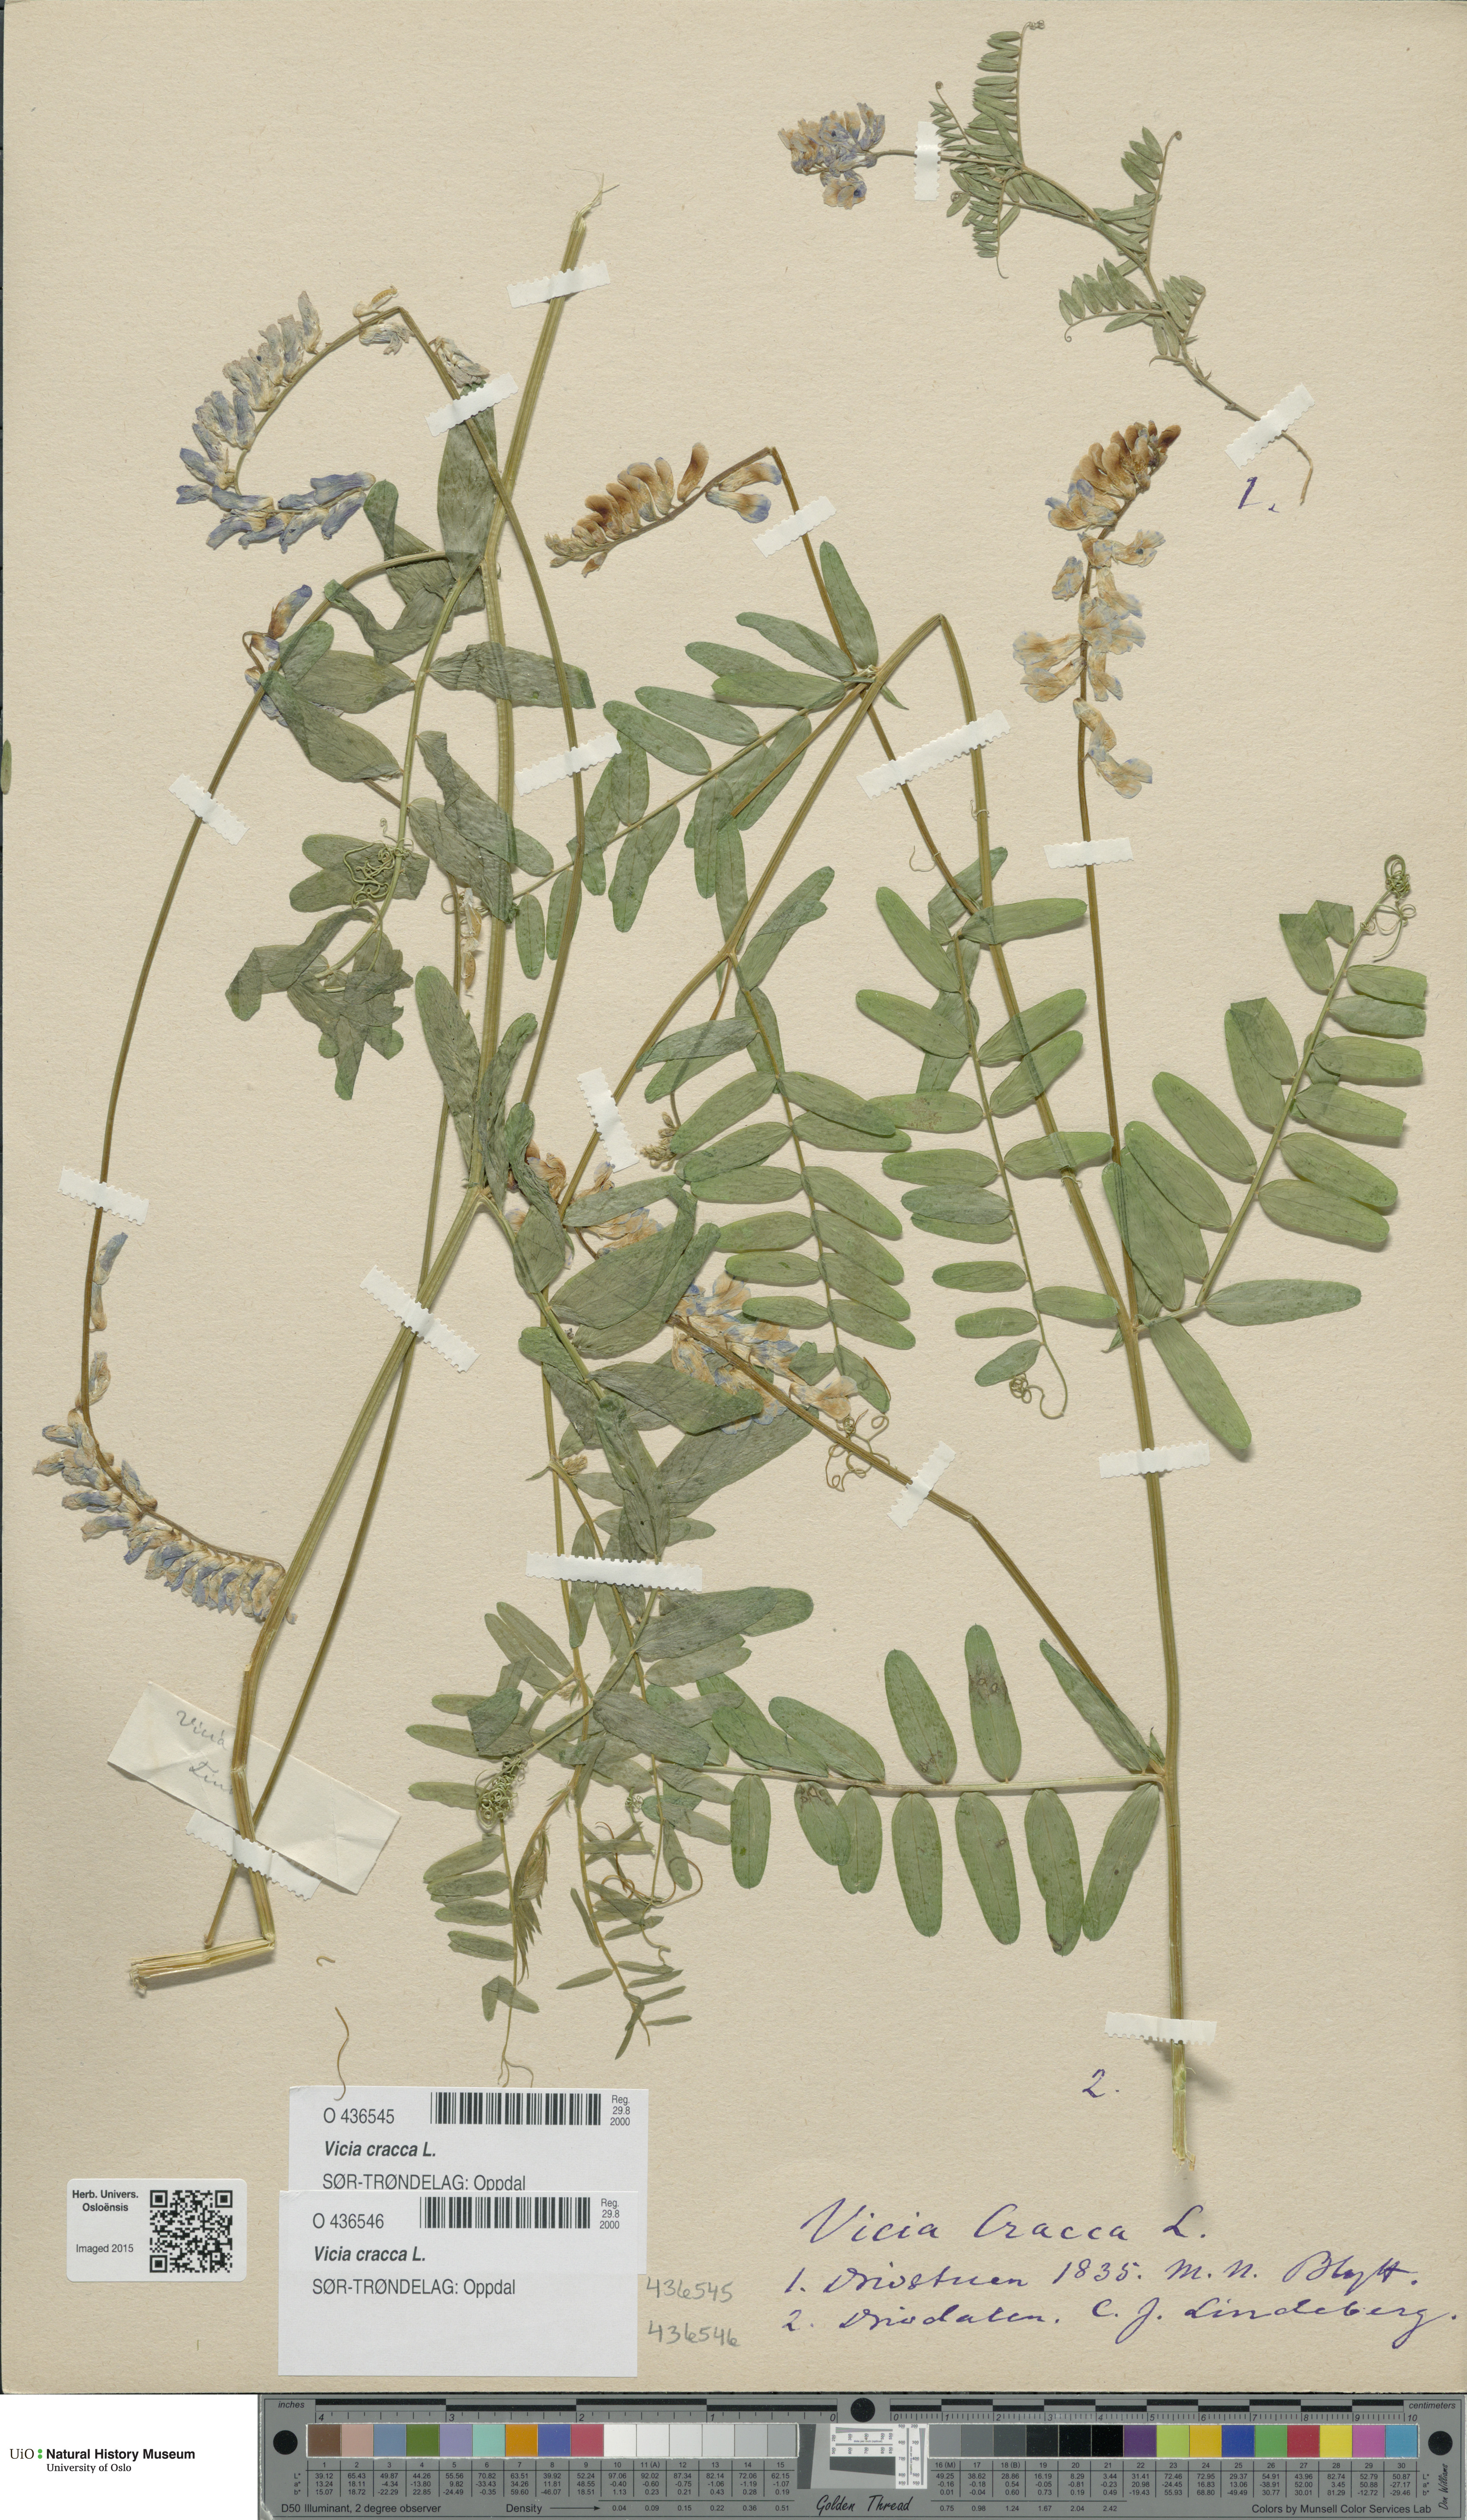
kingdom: Plantae
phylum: Tracheophyta
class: Magnoliopsida
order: Fabales
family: Fabaceae
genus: Vicia
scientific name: Vicia cracca
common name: Bird vetch
